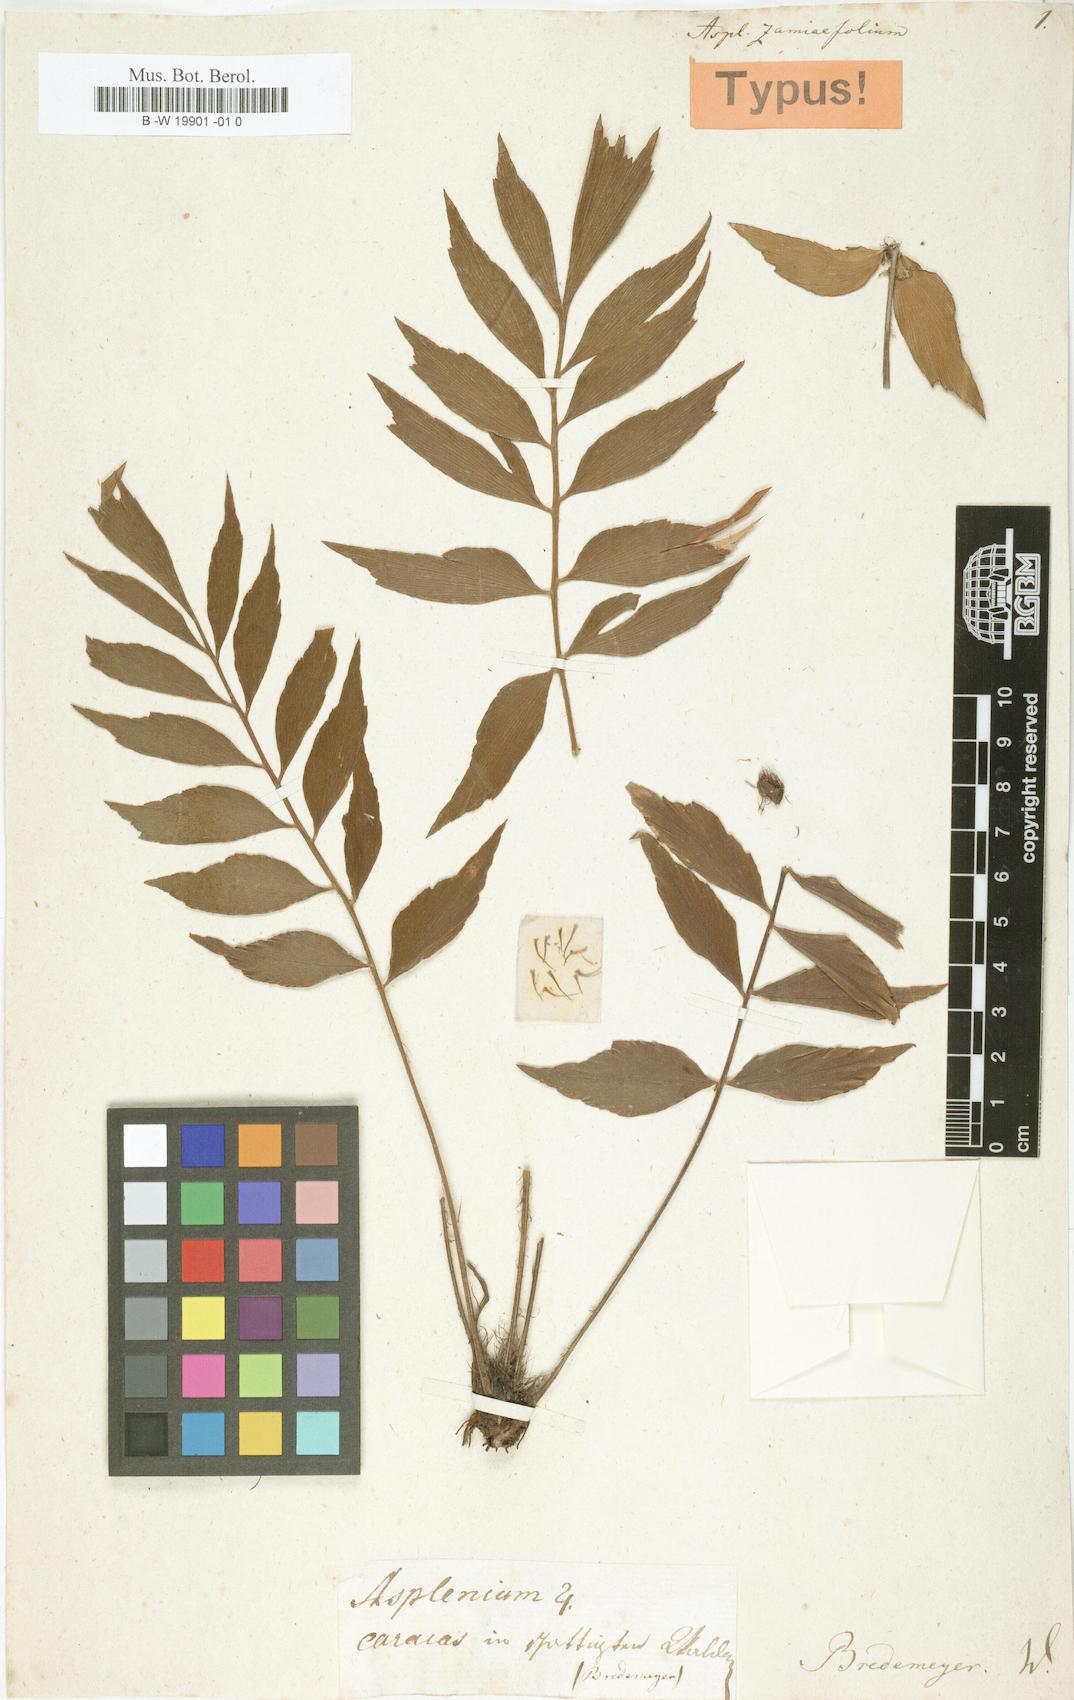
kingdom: Plantae
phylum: Tracheophyta
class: Polypodiopsida
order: Polypodiales
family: Aspleniaceae
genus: Asplenium
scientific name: Asplenium zamiifolium
